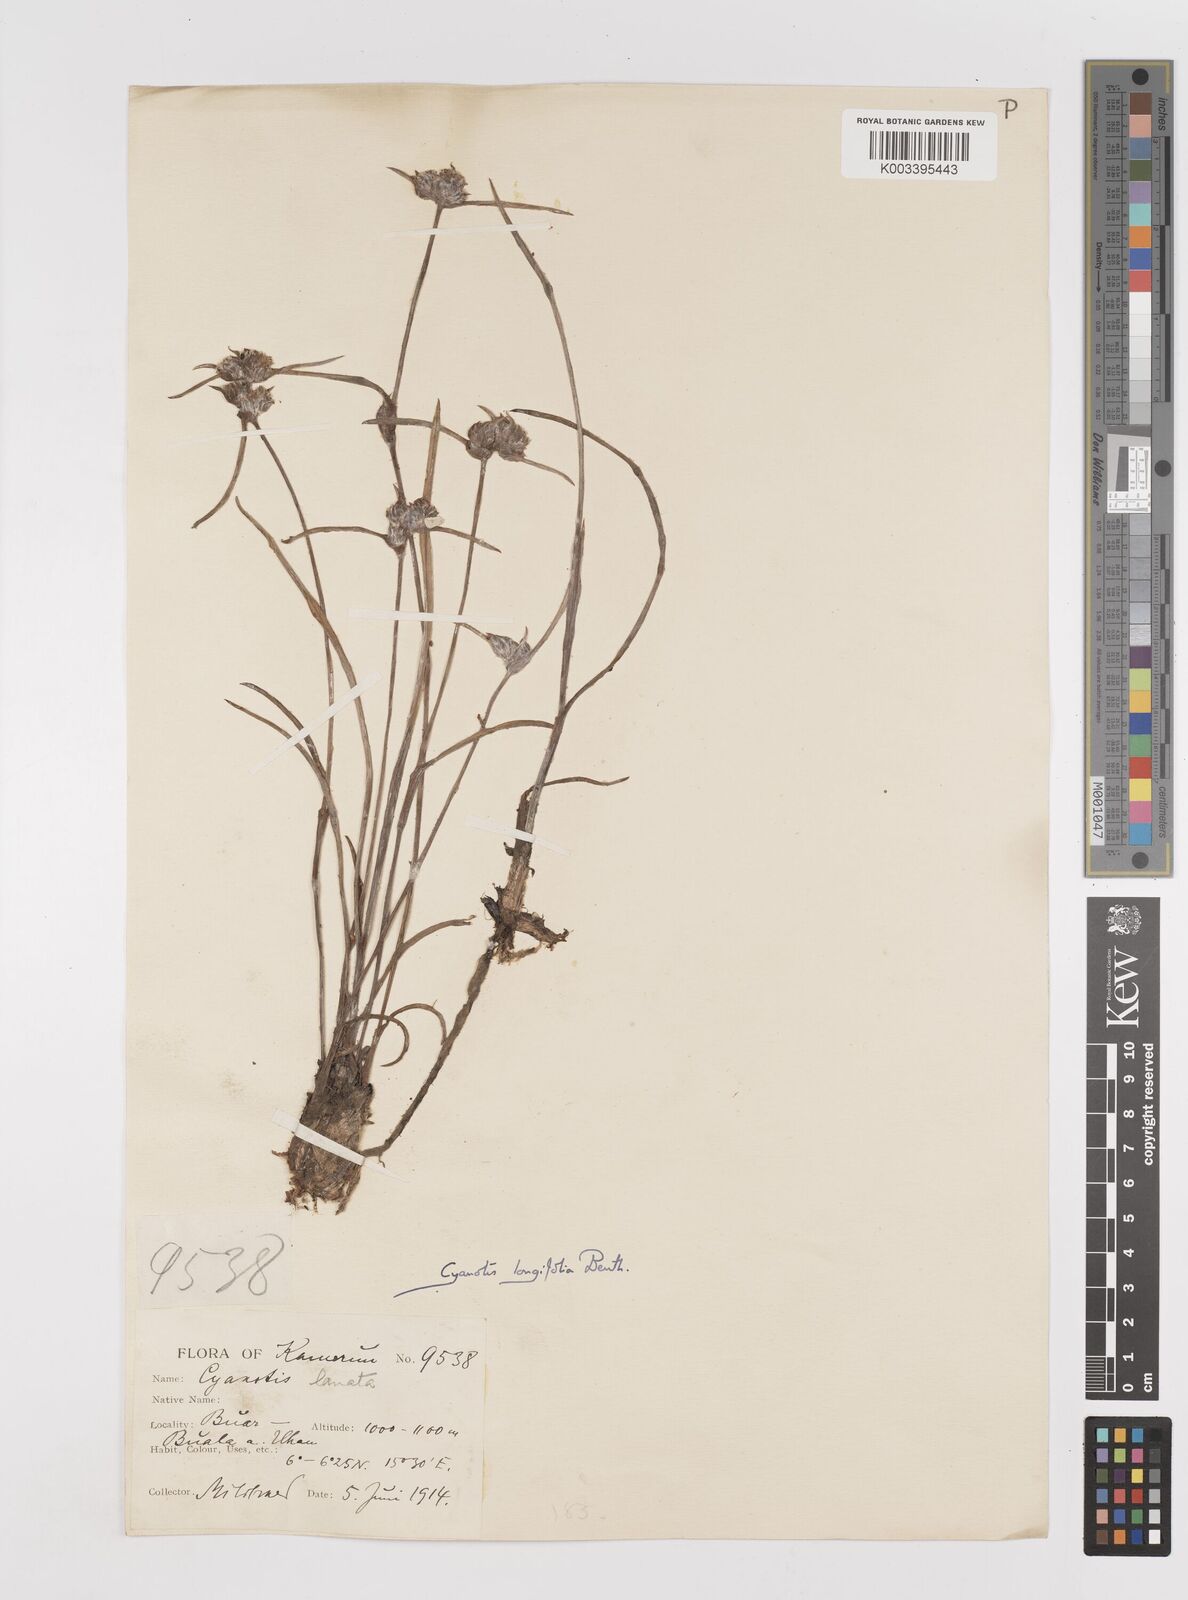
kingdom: Plantae
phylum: Tracheophyta
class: Liliopsida
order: Commelinales
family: Commelinaceae
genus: Cyanotis
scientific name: Cyanotis longifolia
